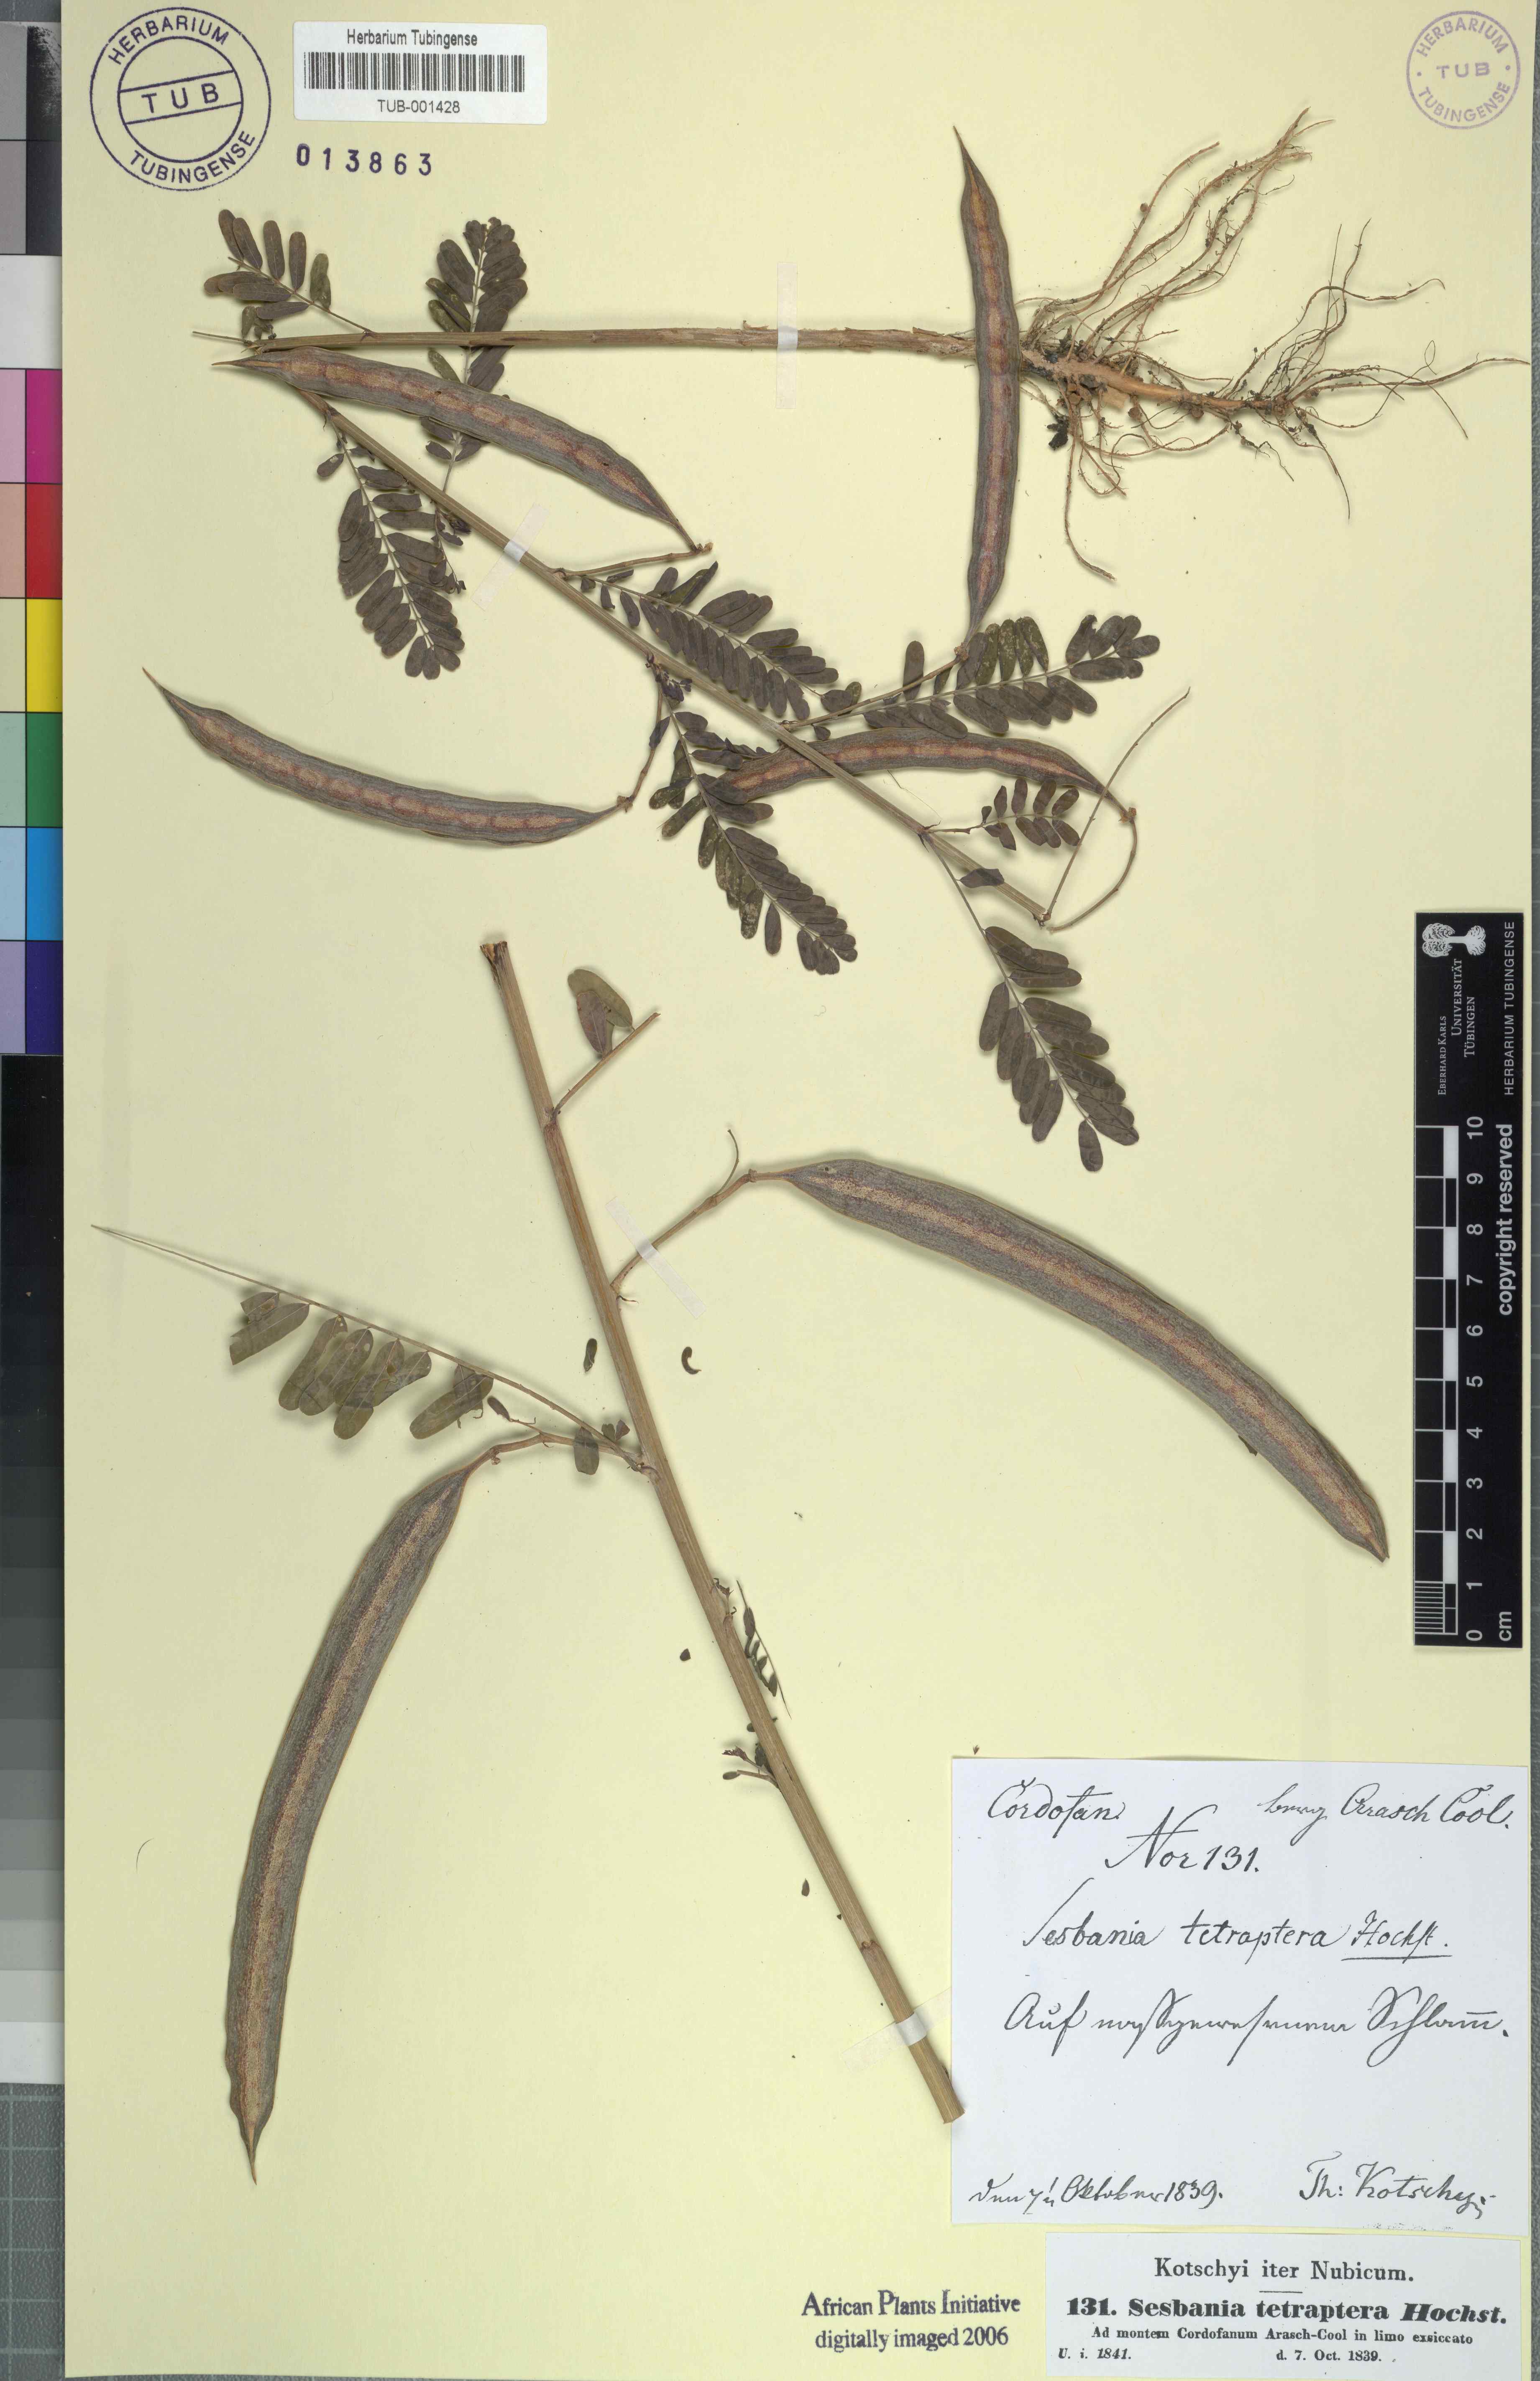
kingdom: Plantae
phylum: Tracheophyta
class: Magnoliopsida
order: Fabales
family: Fabaceae
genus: Sesbania
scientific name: Sesbania tetraptera
